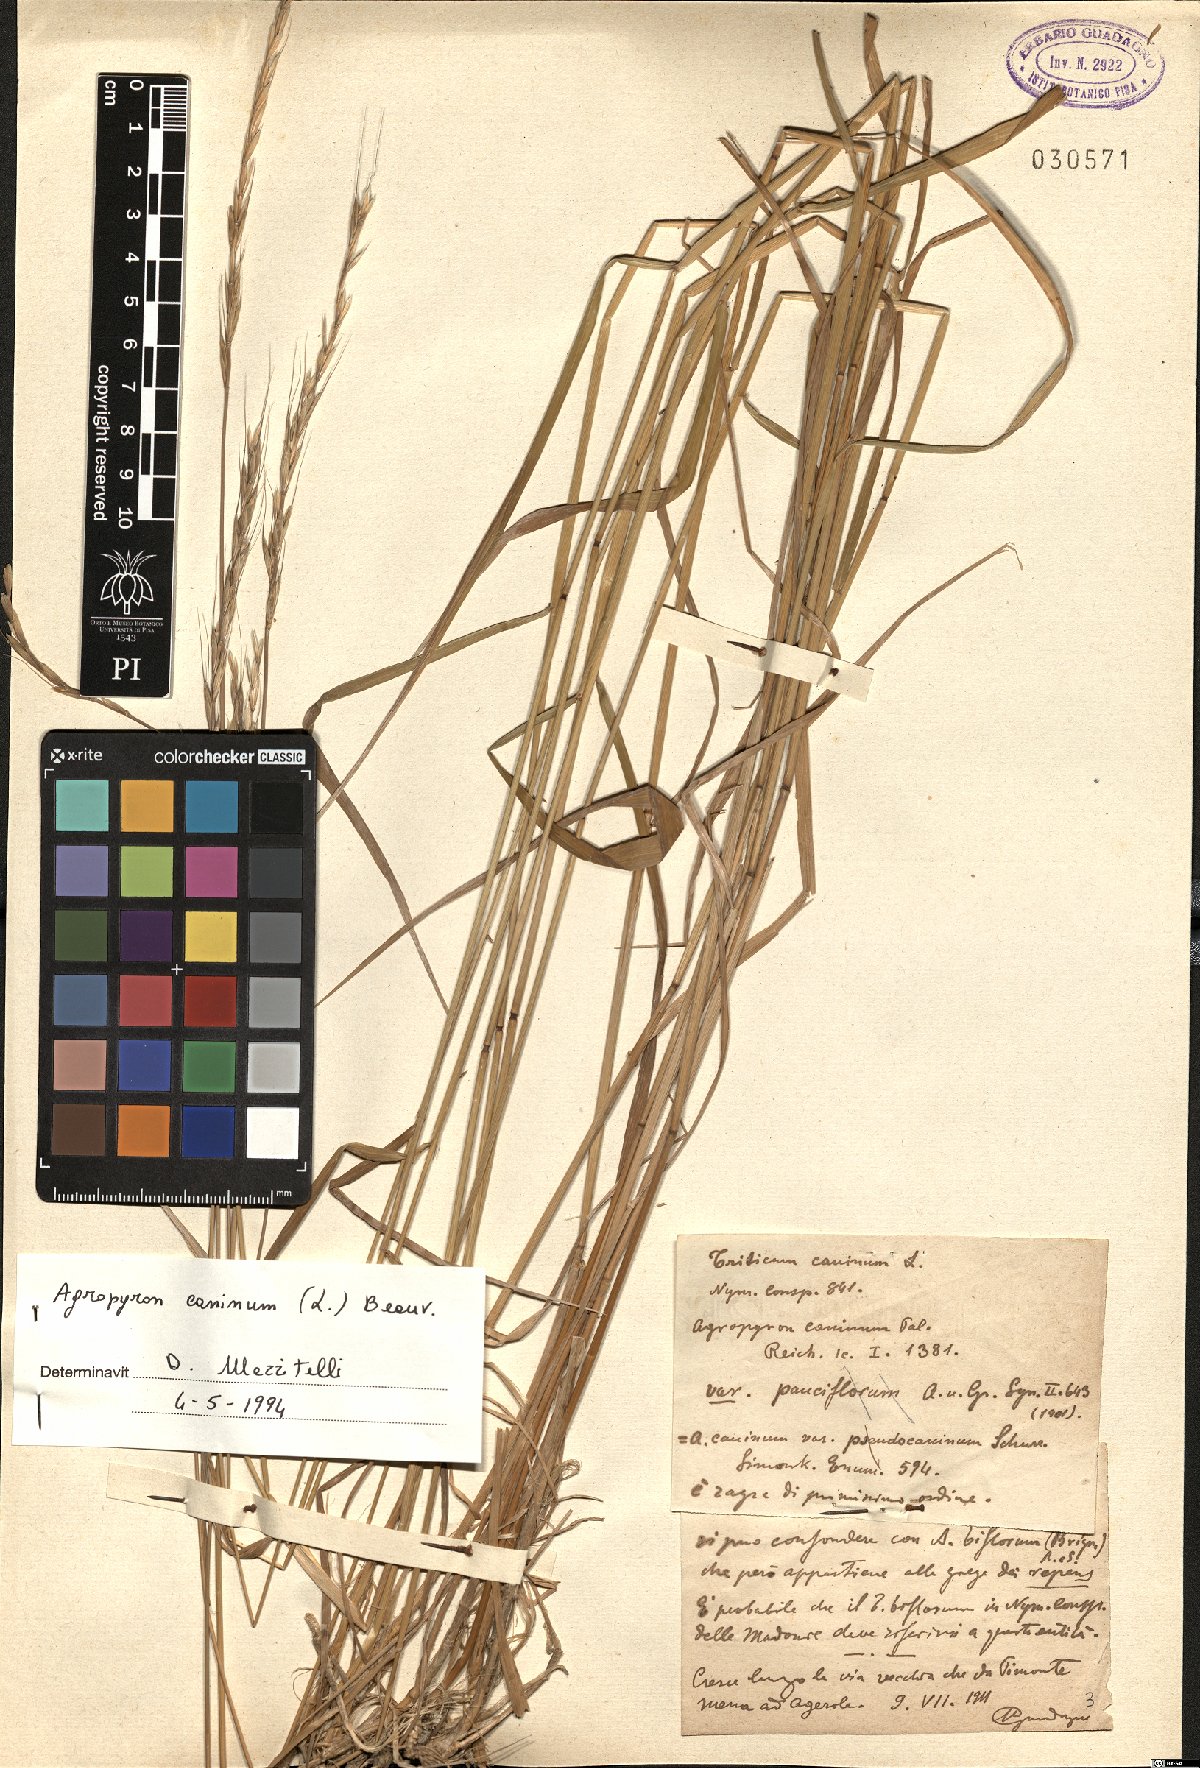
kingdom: Plantae
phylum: Tracheophyta
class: Liliopsida
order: Poales
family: Poaceae
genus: Elymus
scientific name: Elymus caninus
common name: Bearded couch
